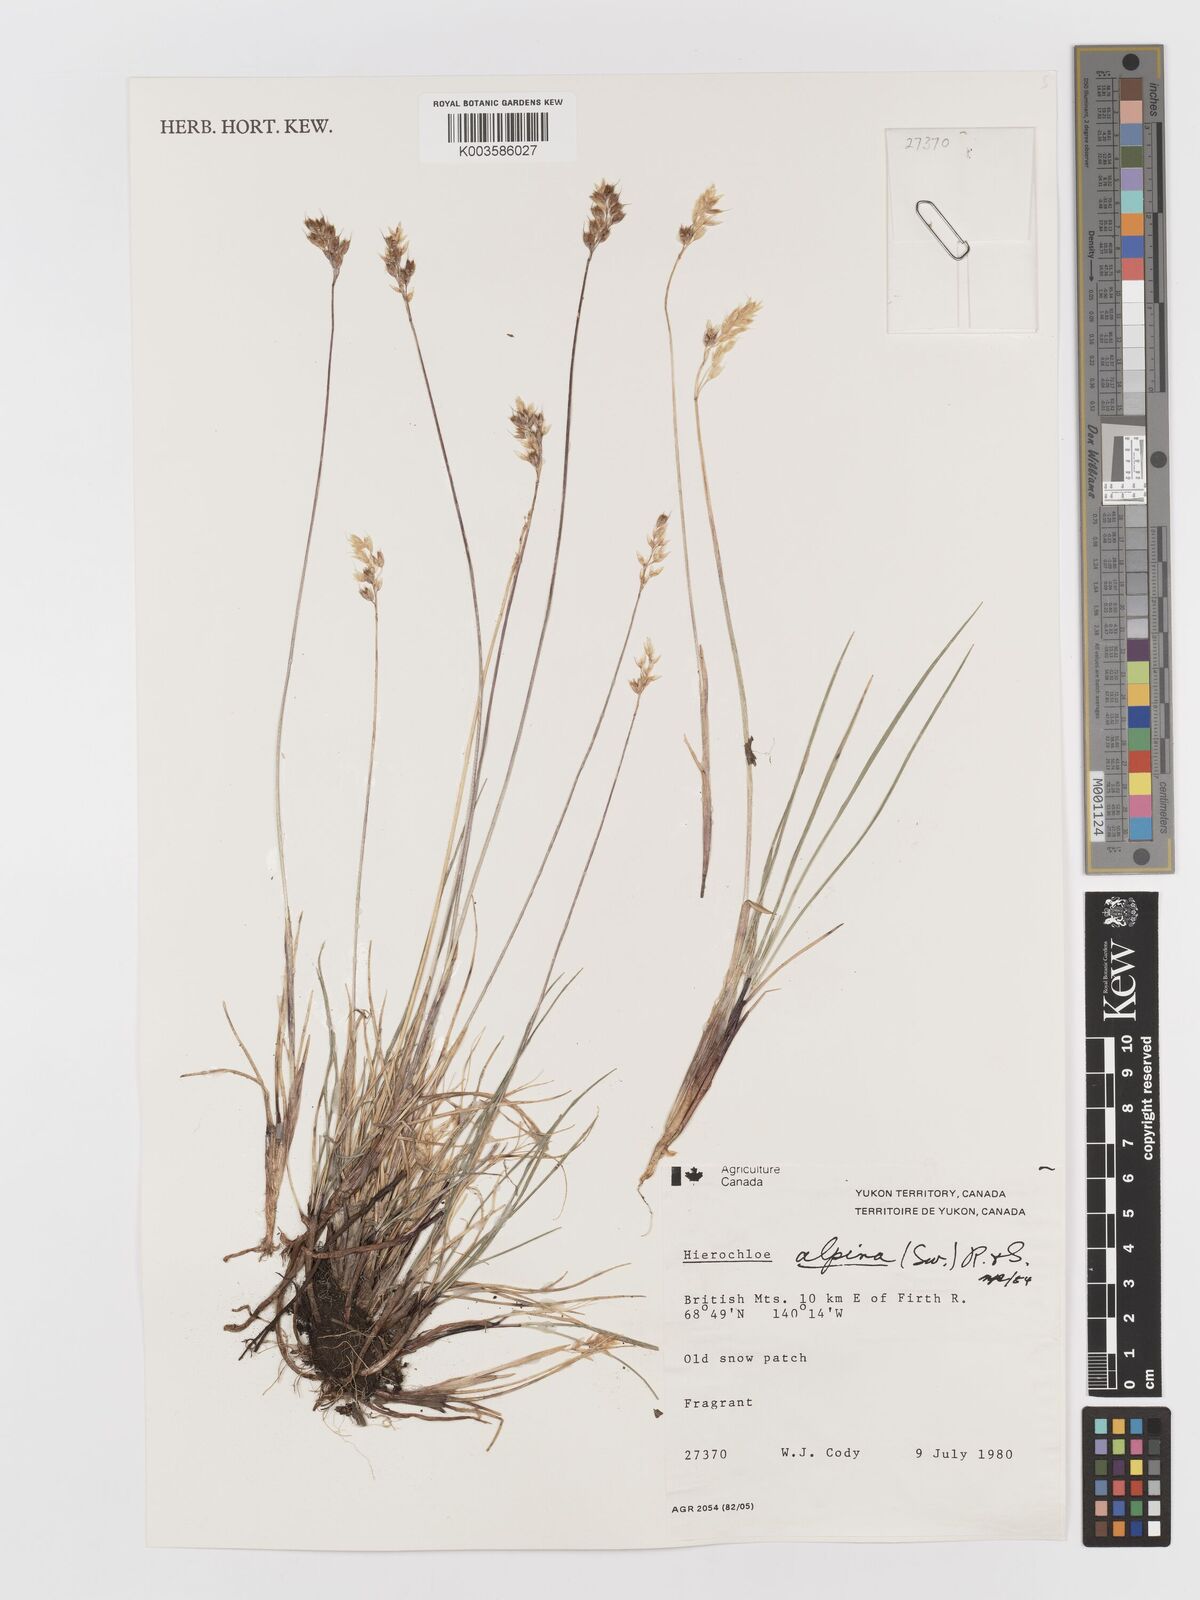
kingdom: Plantae
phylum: Tracheophyta
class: Liliopsida
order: Poales
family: Poaceae
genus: Anthoxanthum
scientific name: Anthoxanthum monticola
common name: Alpine sweetgrass
